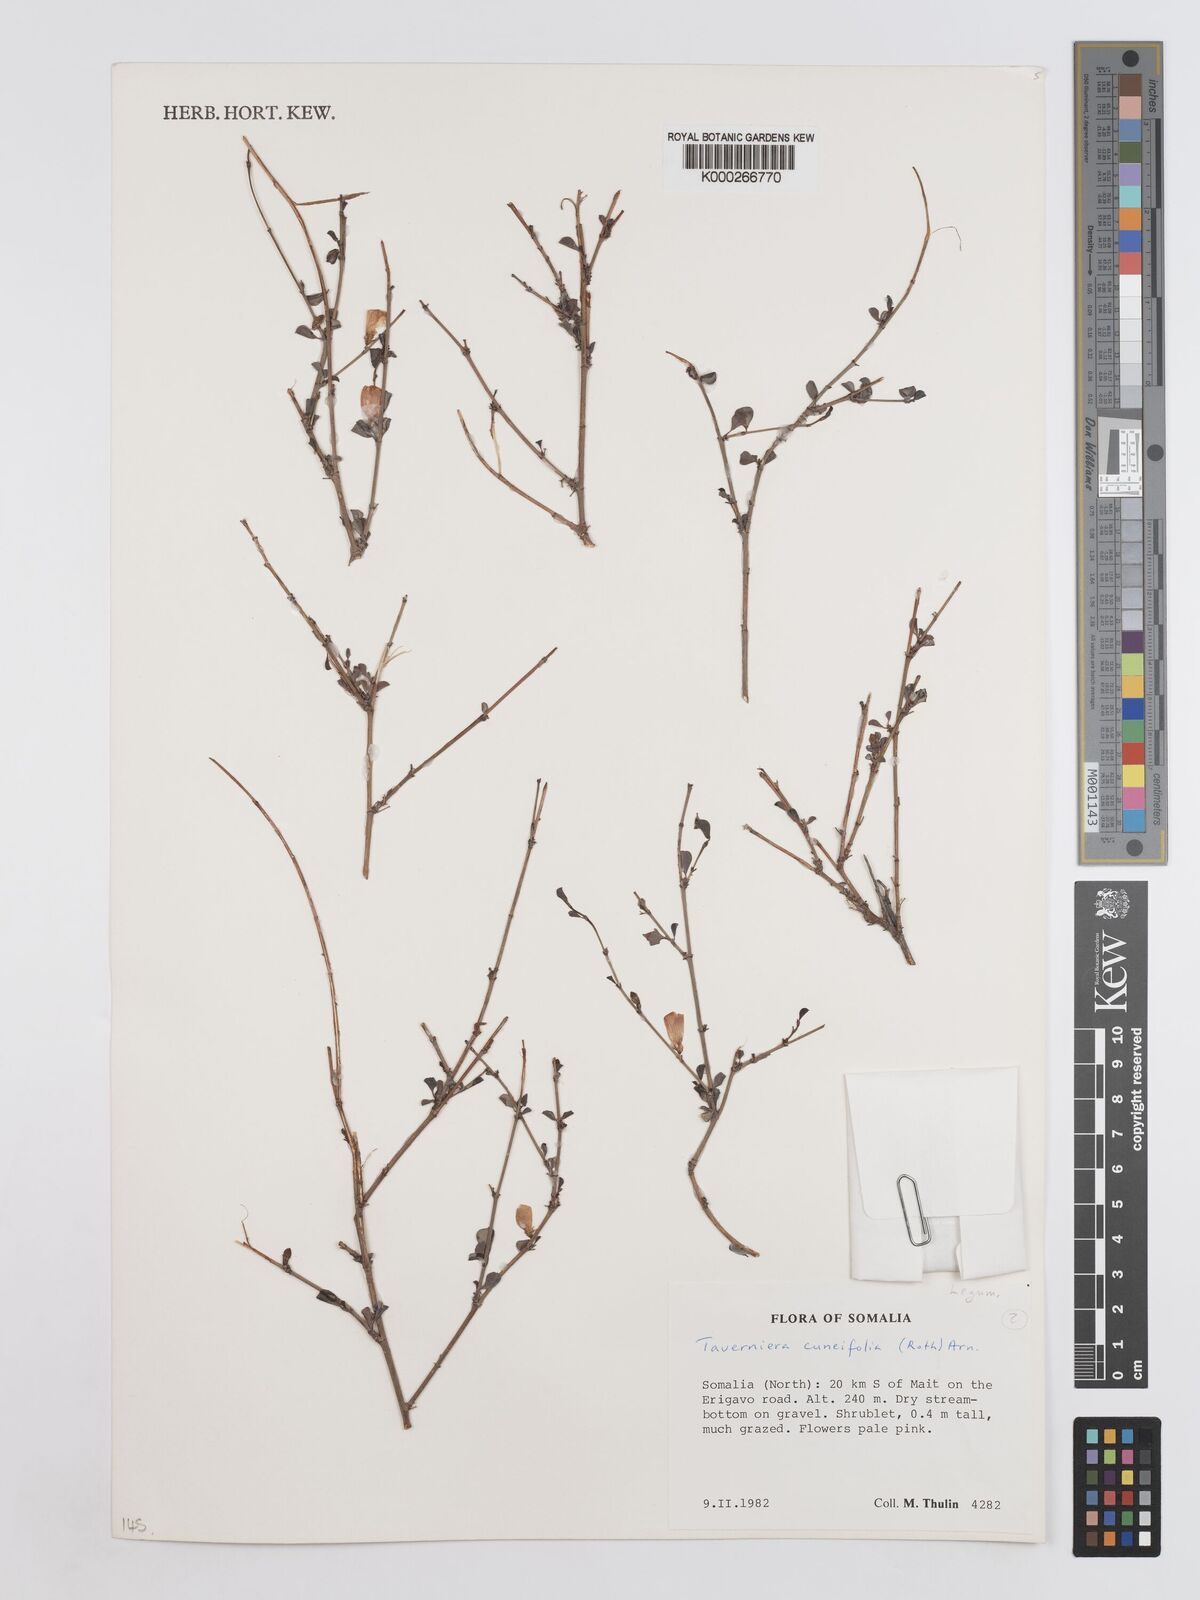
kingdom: Plantae
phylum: Tracheophyta
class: Magnoliopsida
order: Fabales
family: Fabaceae
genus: Taverniera
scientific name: Taverniera cuneifolia
